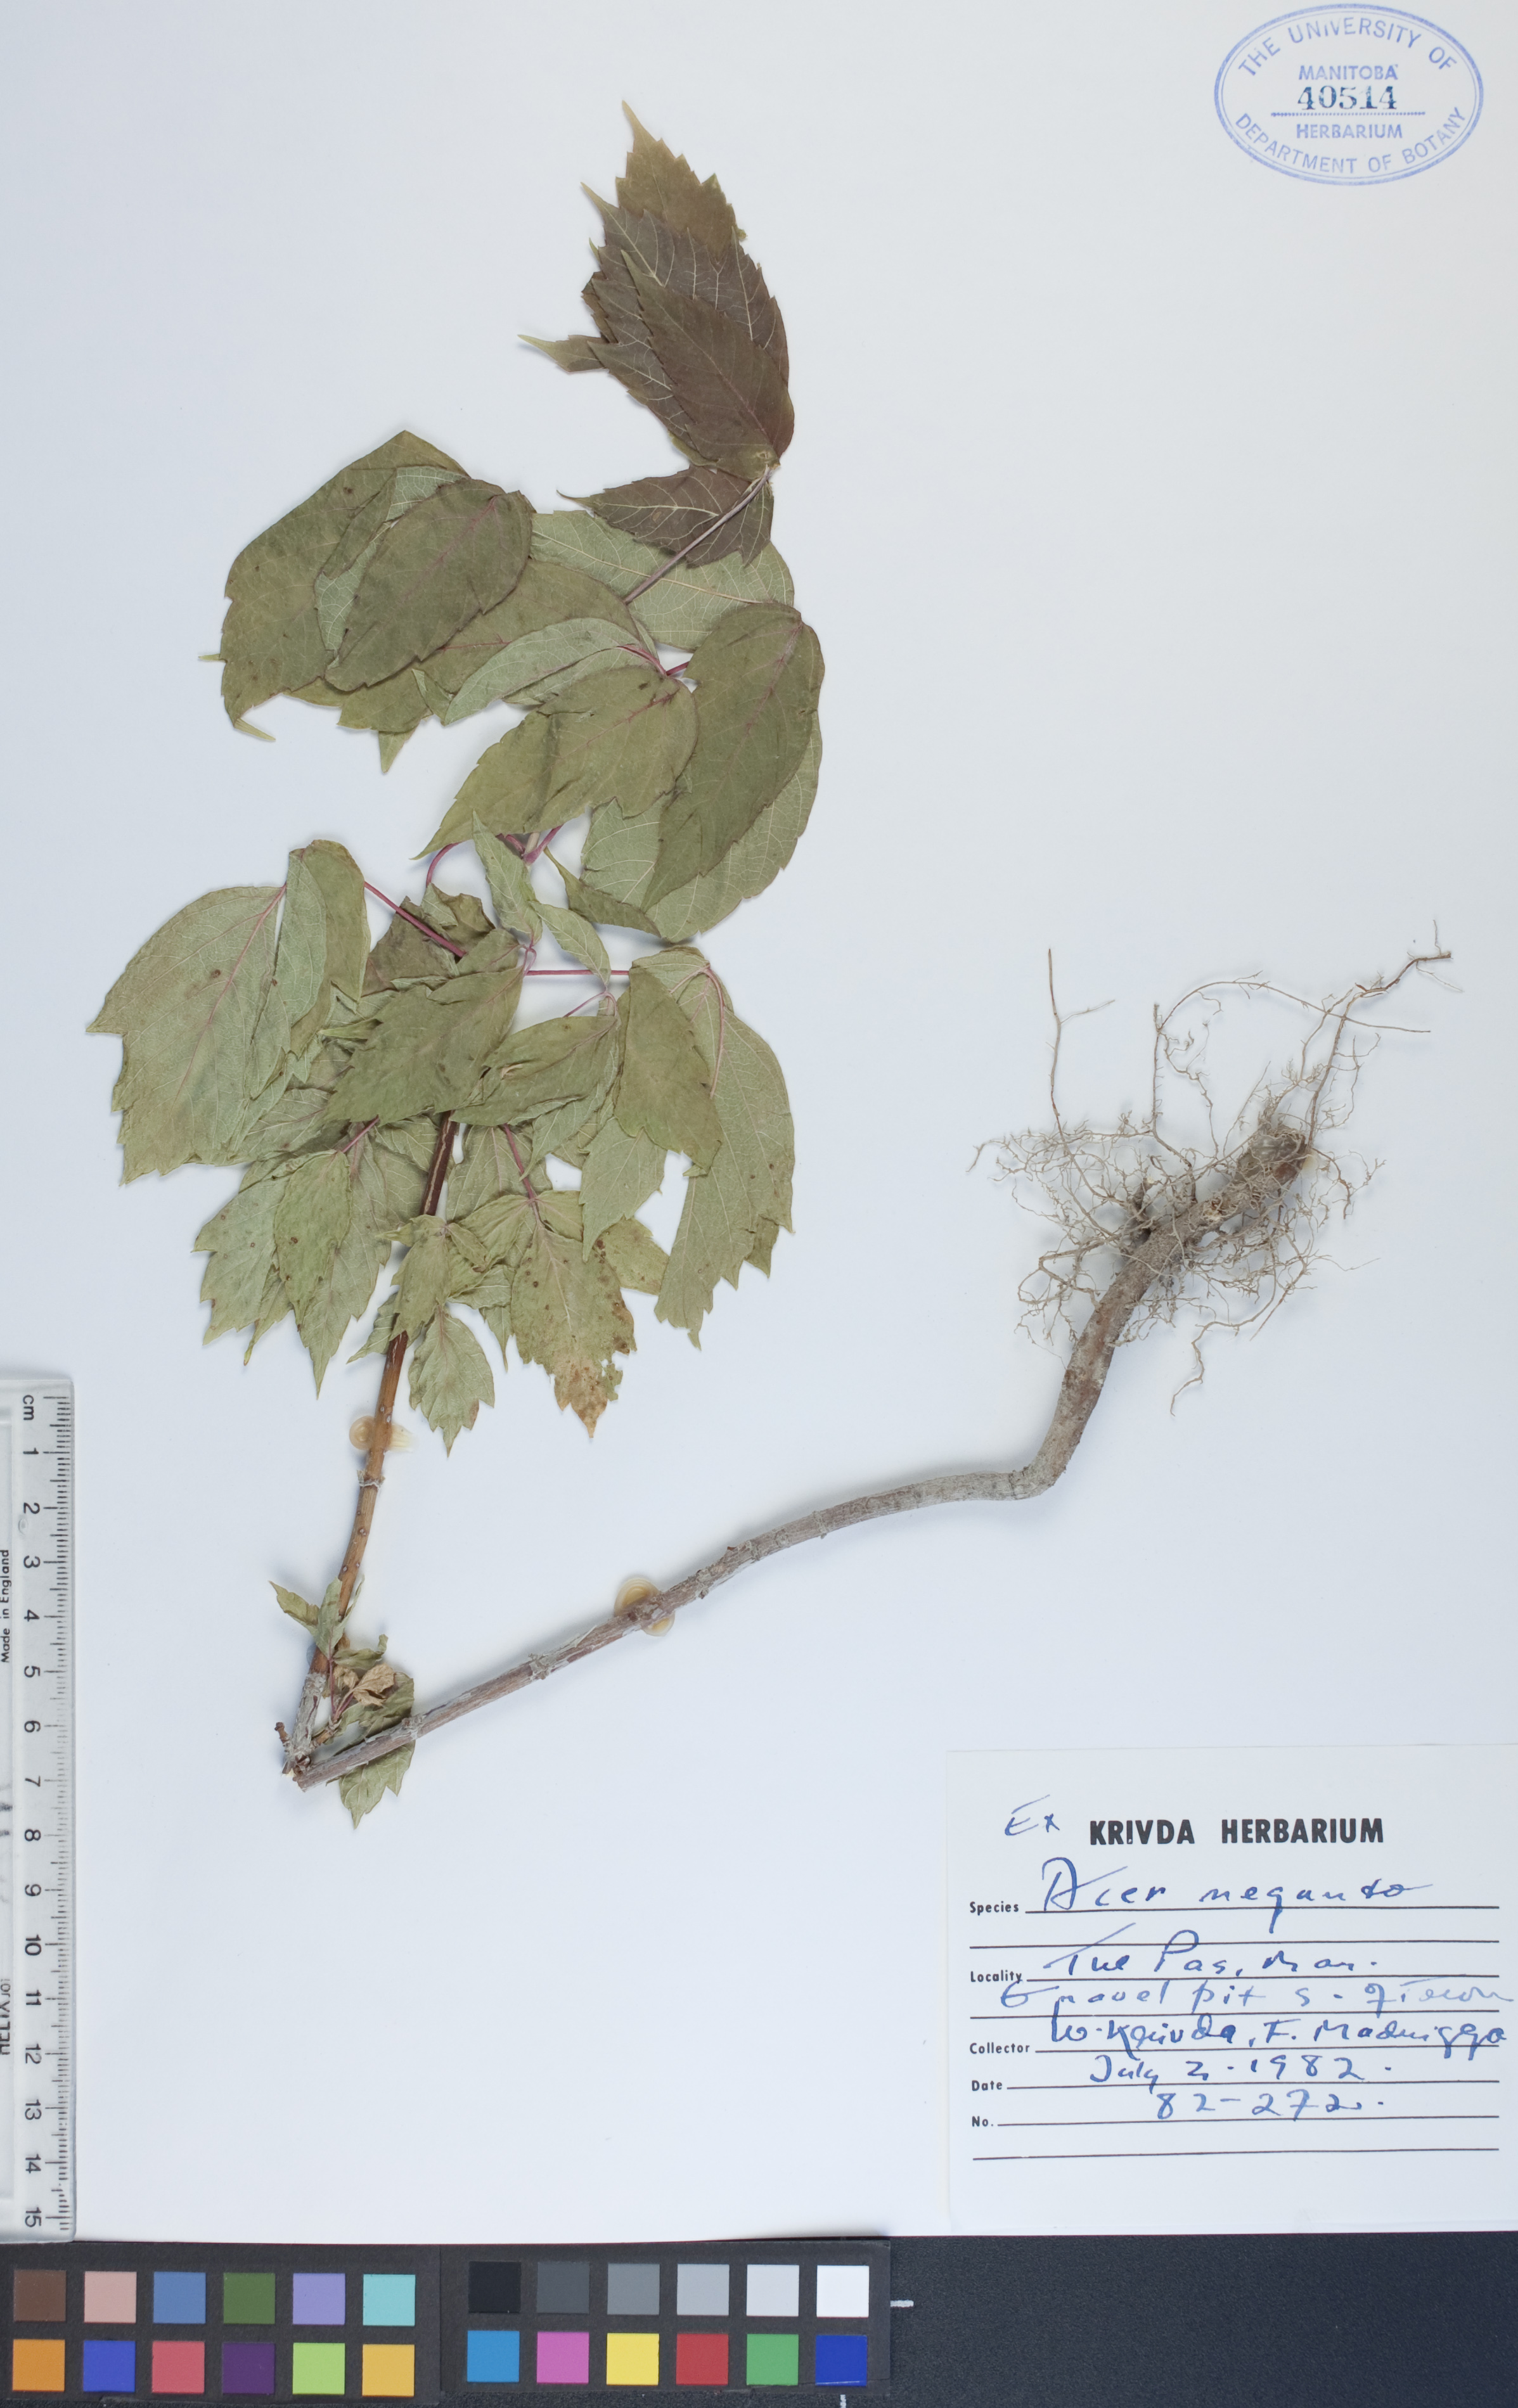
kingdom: Plantae
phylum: Tracheophyta
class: Magnoliopsida
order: Sapindales
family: Sapindaceae
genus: Acer
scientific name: Acer negundo
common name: Ashleaf maple
